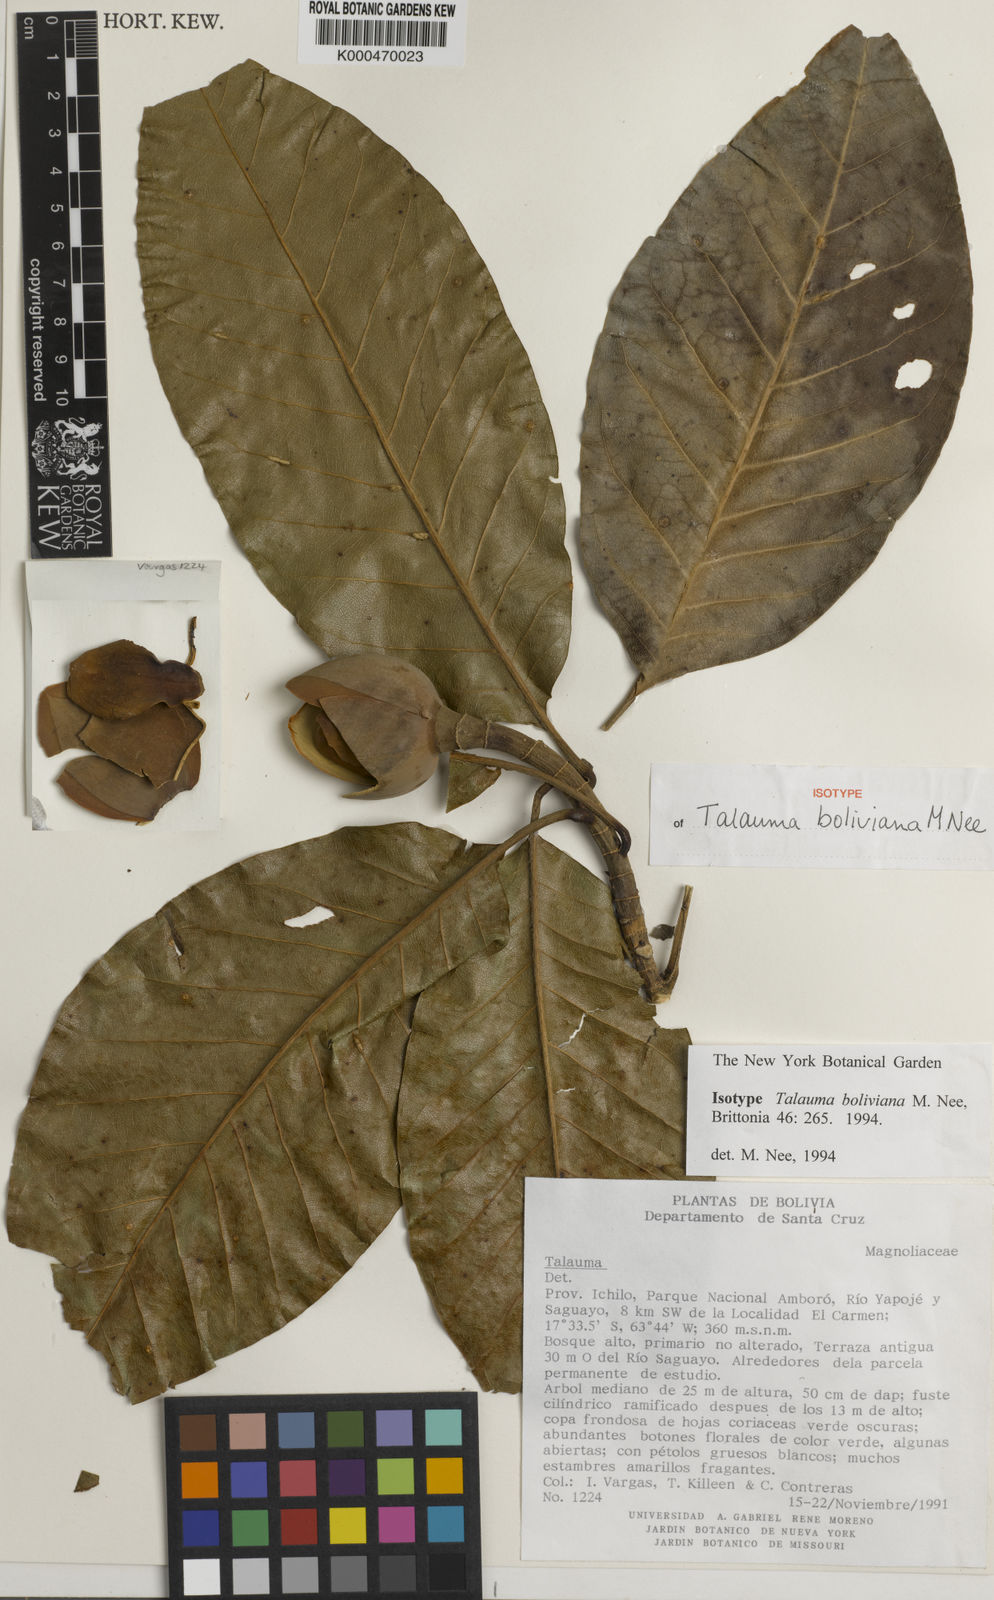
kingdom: Plantae
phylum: Tracheophyta
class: Magnoliopsida
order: Magnoliales
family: Magnoliaceae
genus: Magnolia
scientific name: Magnolia boliviana
